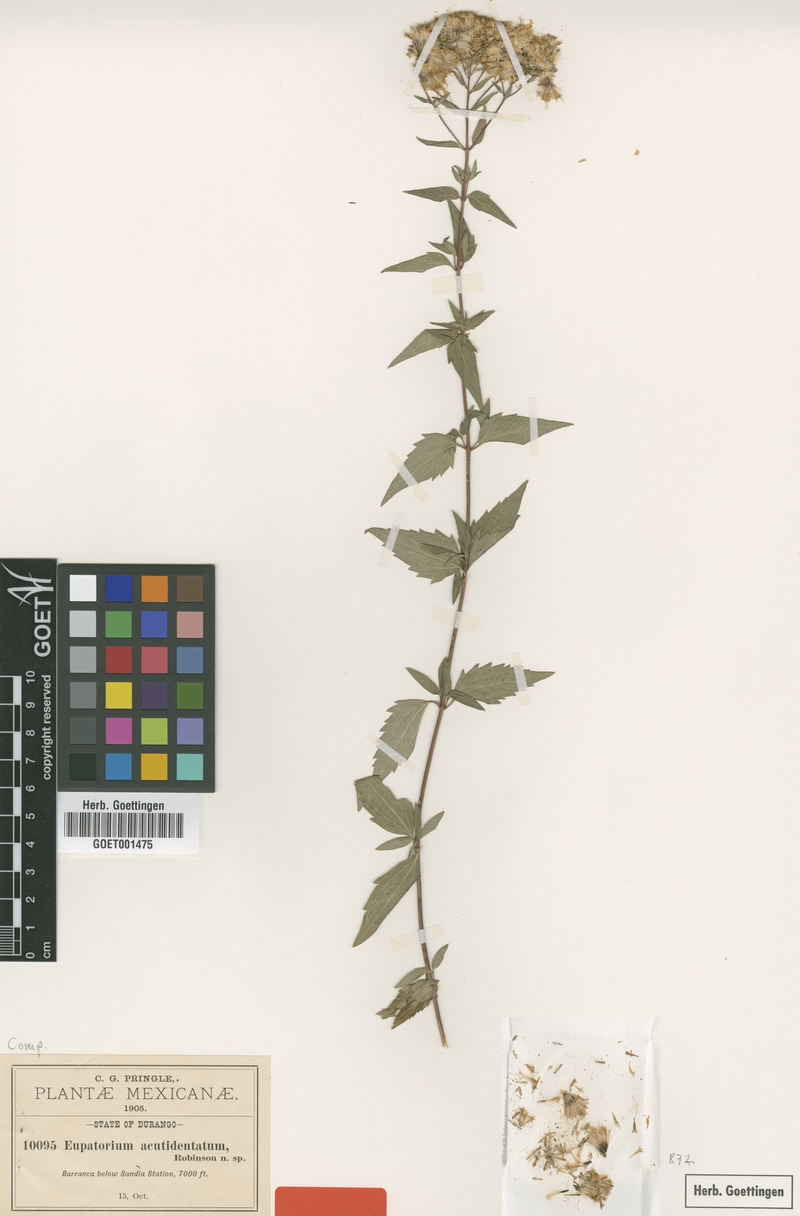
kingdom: Plantae
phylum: Tracheophyta
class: Magnoliopsida
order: Asterales
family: Asteraceae
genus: Ageratina
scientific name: Ageratina venulosa
